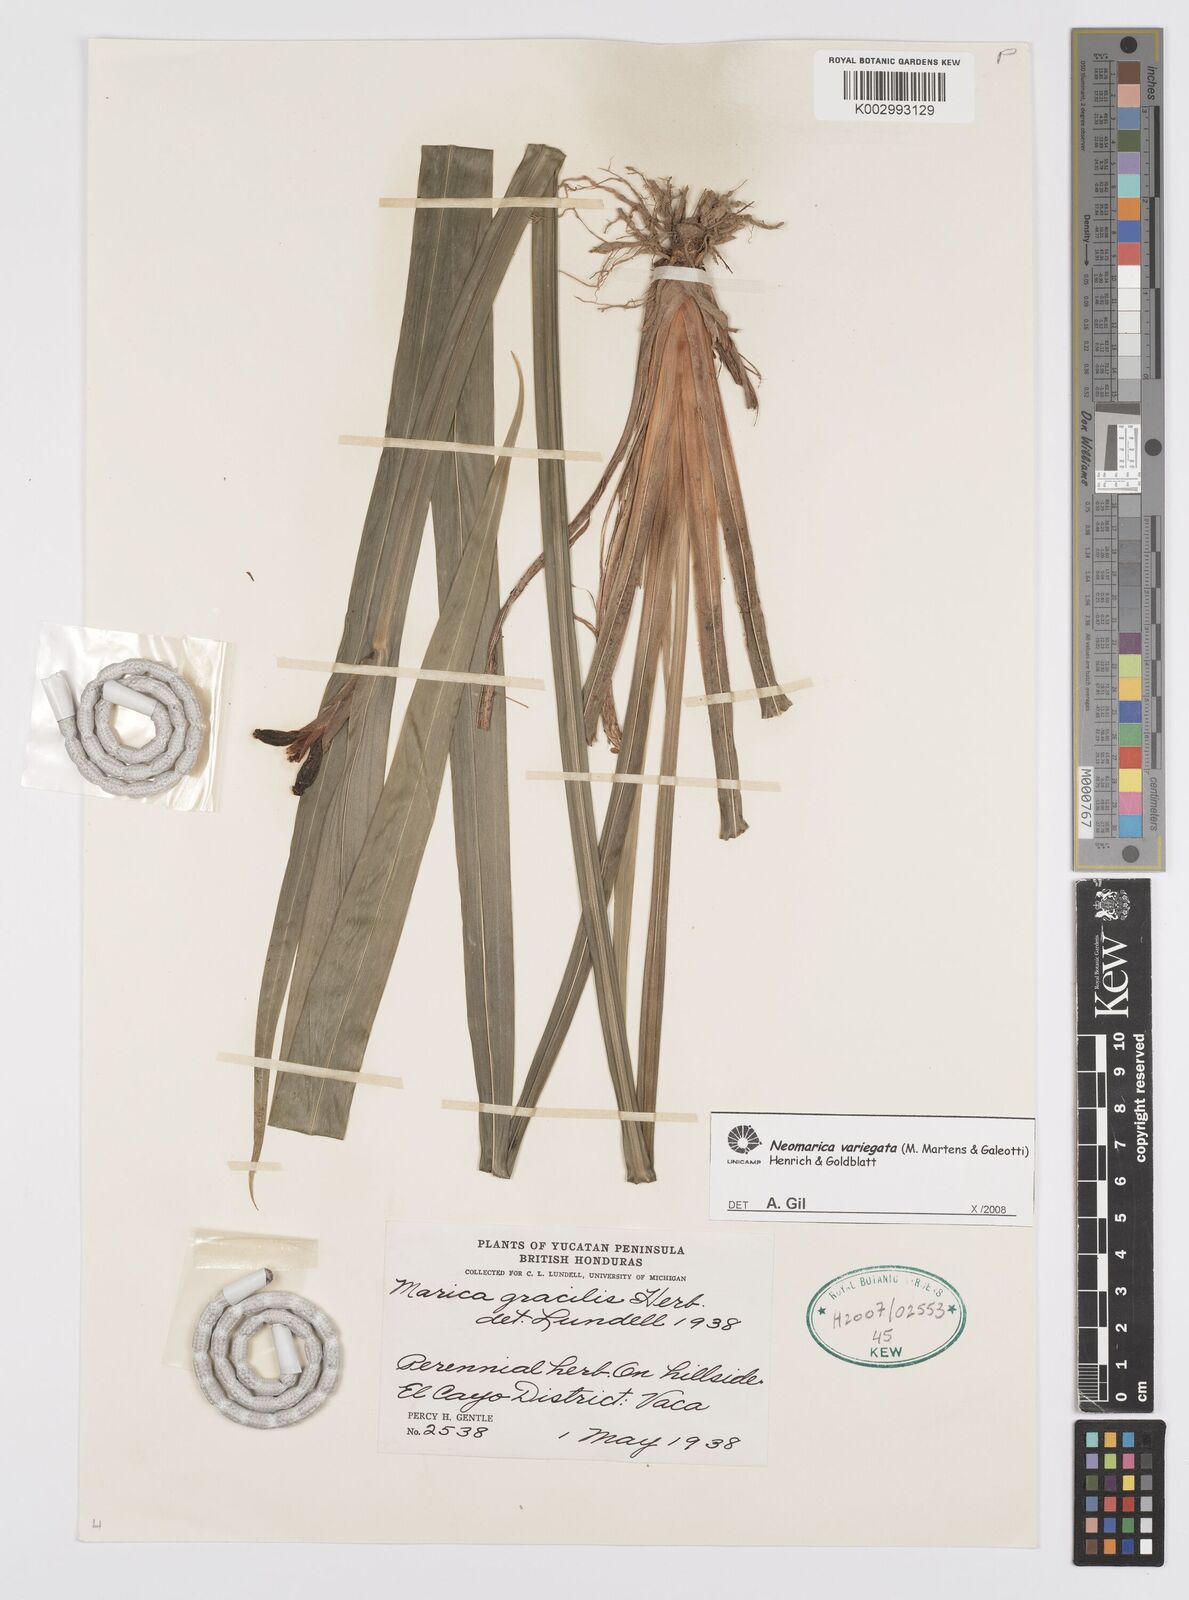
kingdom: Plantae
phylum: Tracheophyta
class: Liliopsida
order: Asparagales
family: Iridaceae
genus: Trimezia
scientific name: Trimezia
